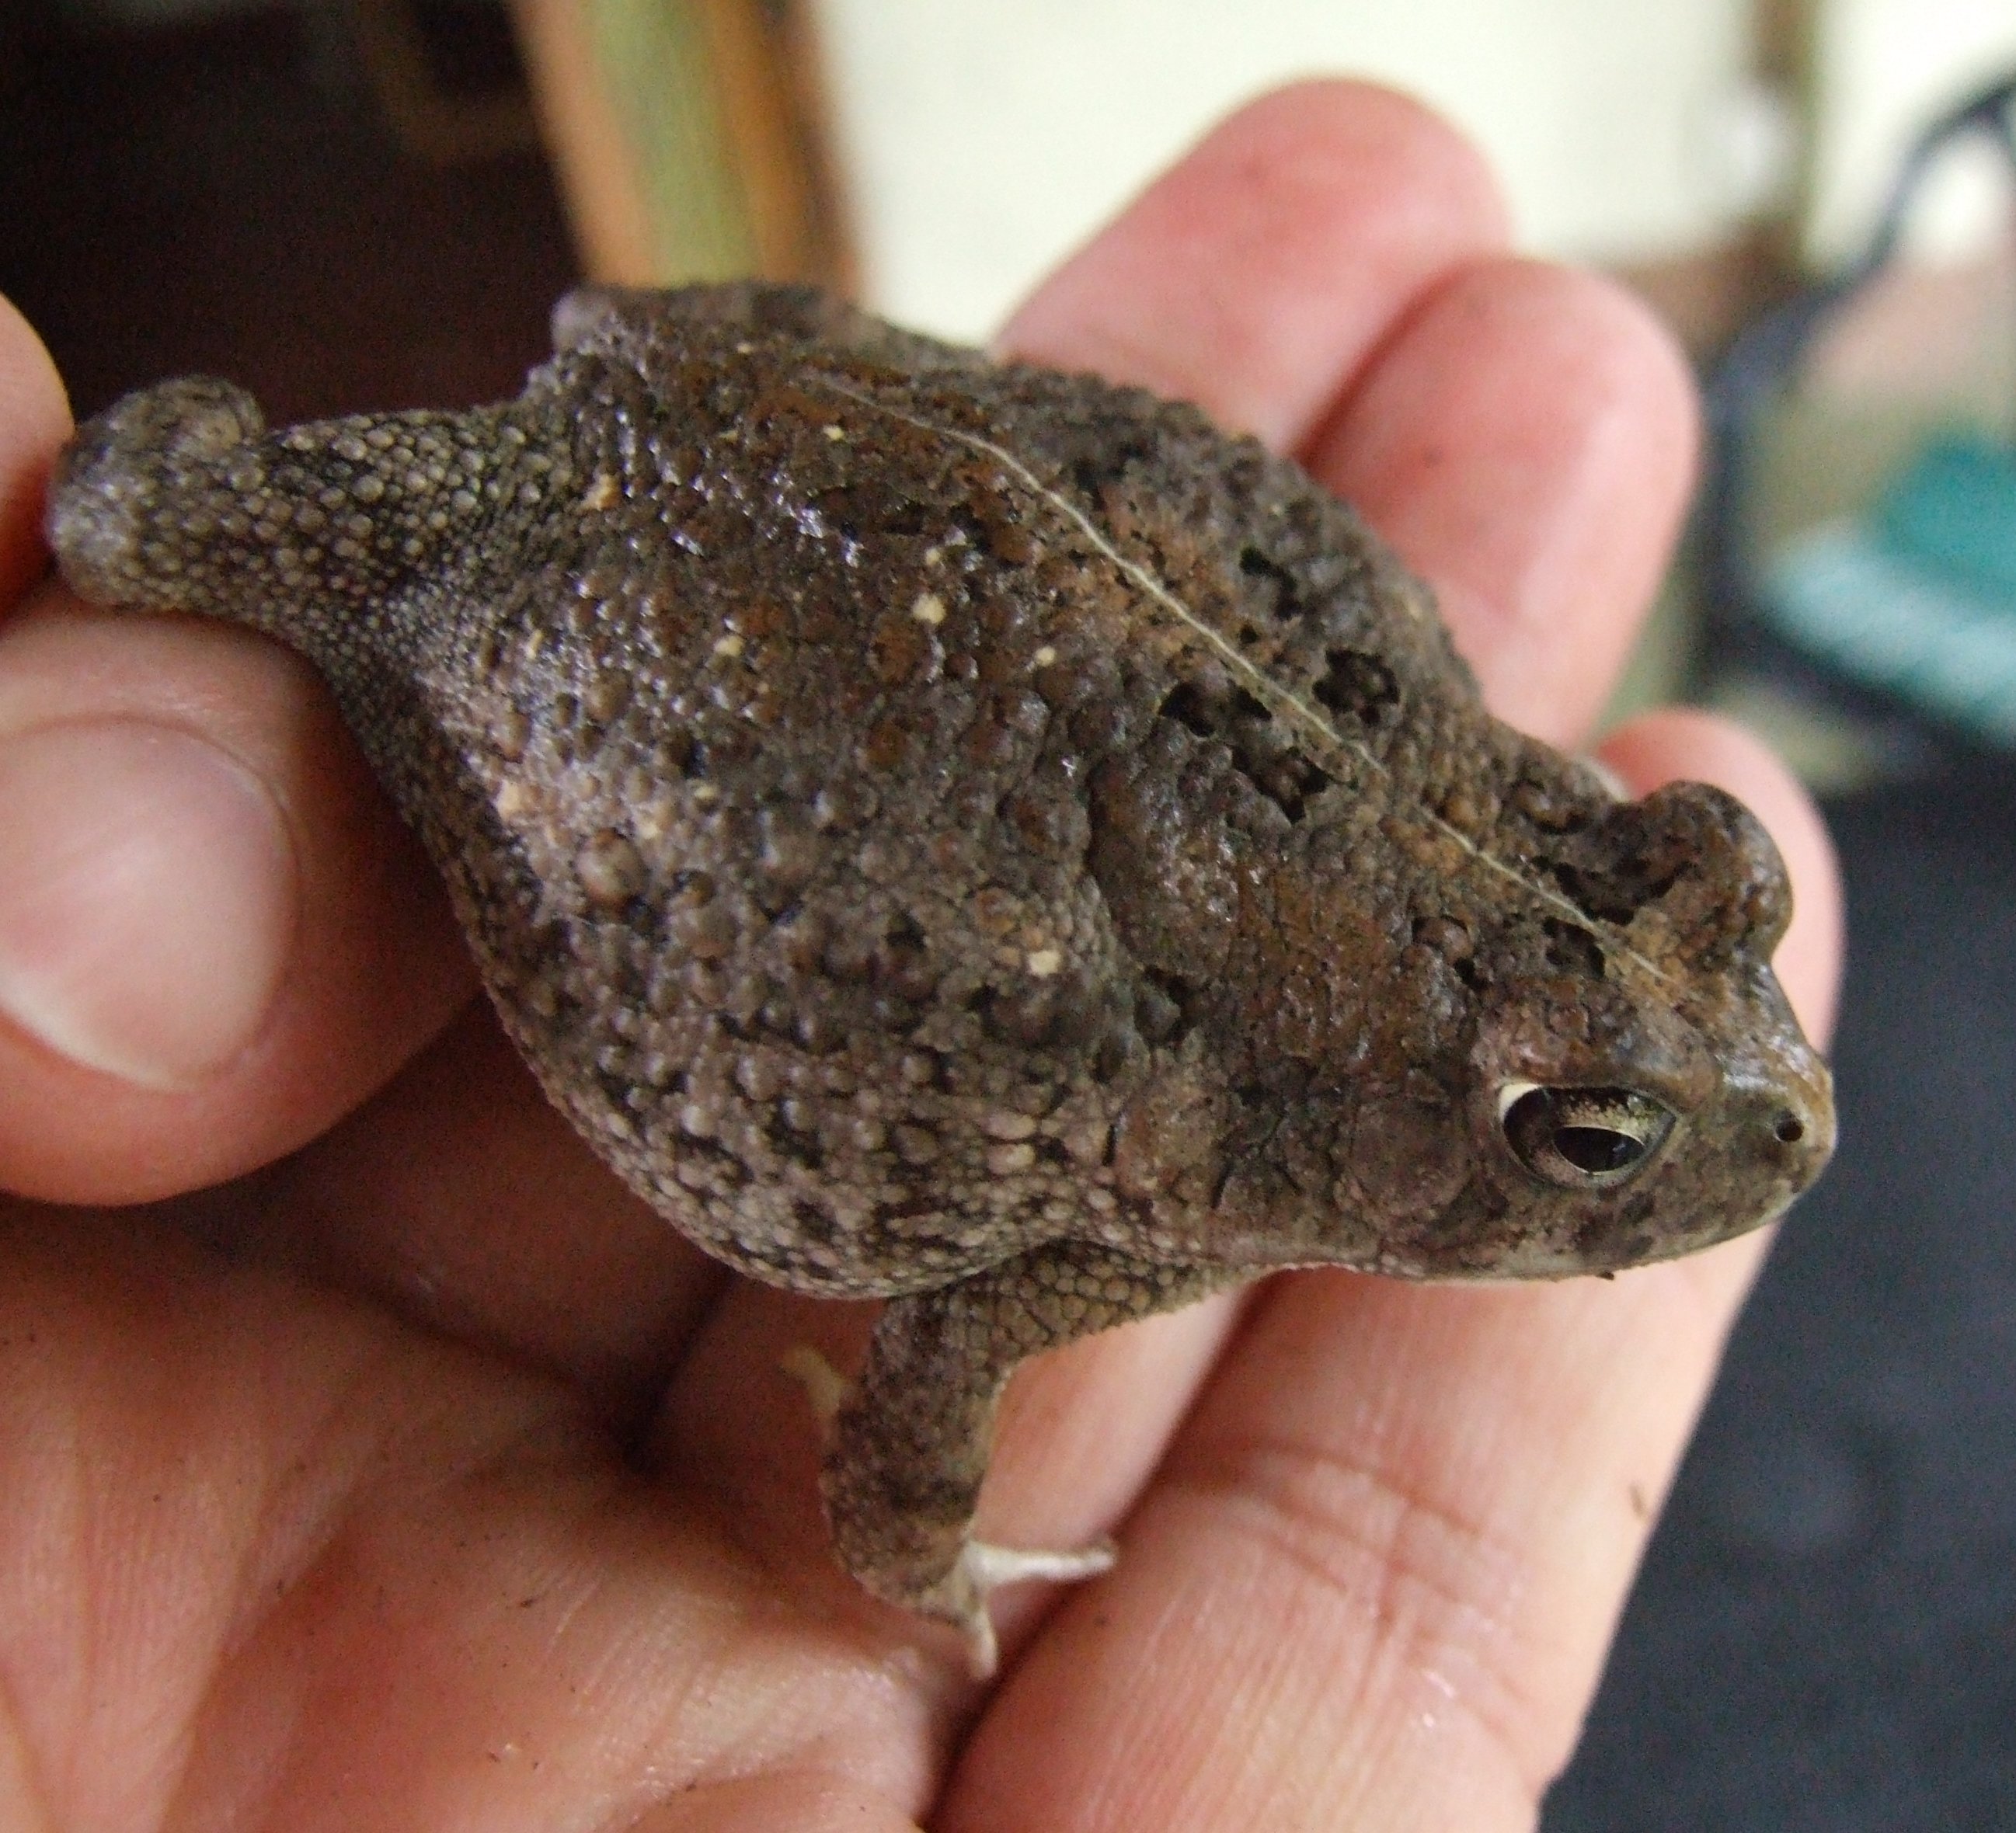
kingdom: Animalia
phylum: Chordata
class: Amphibia
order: Anura
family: Bufonidae
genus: Sclerophrys
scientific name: Sclerophrys
